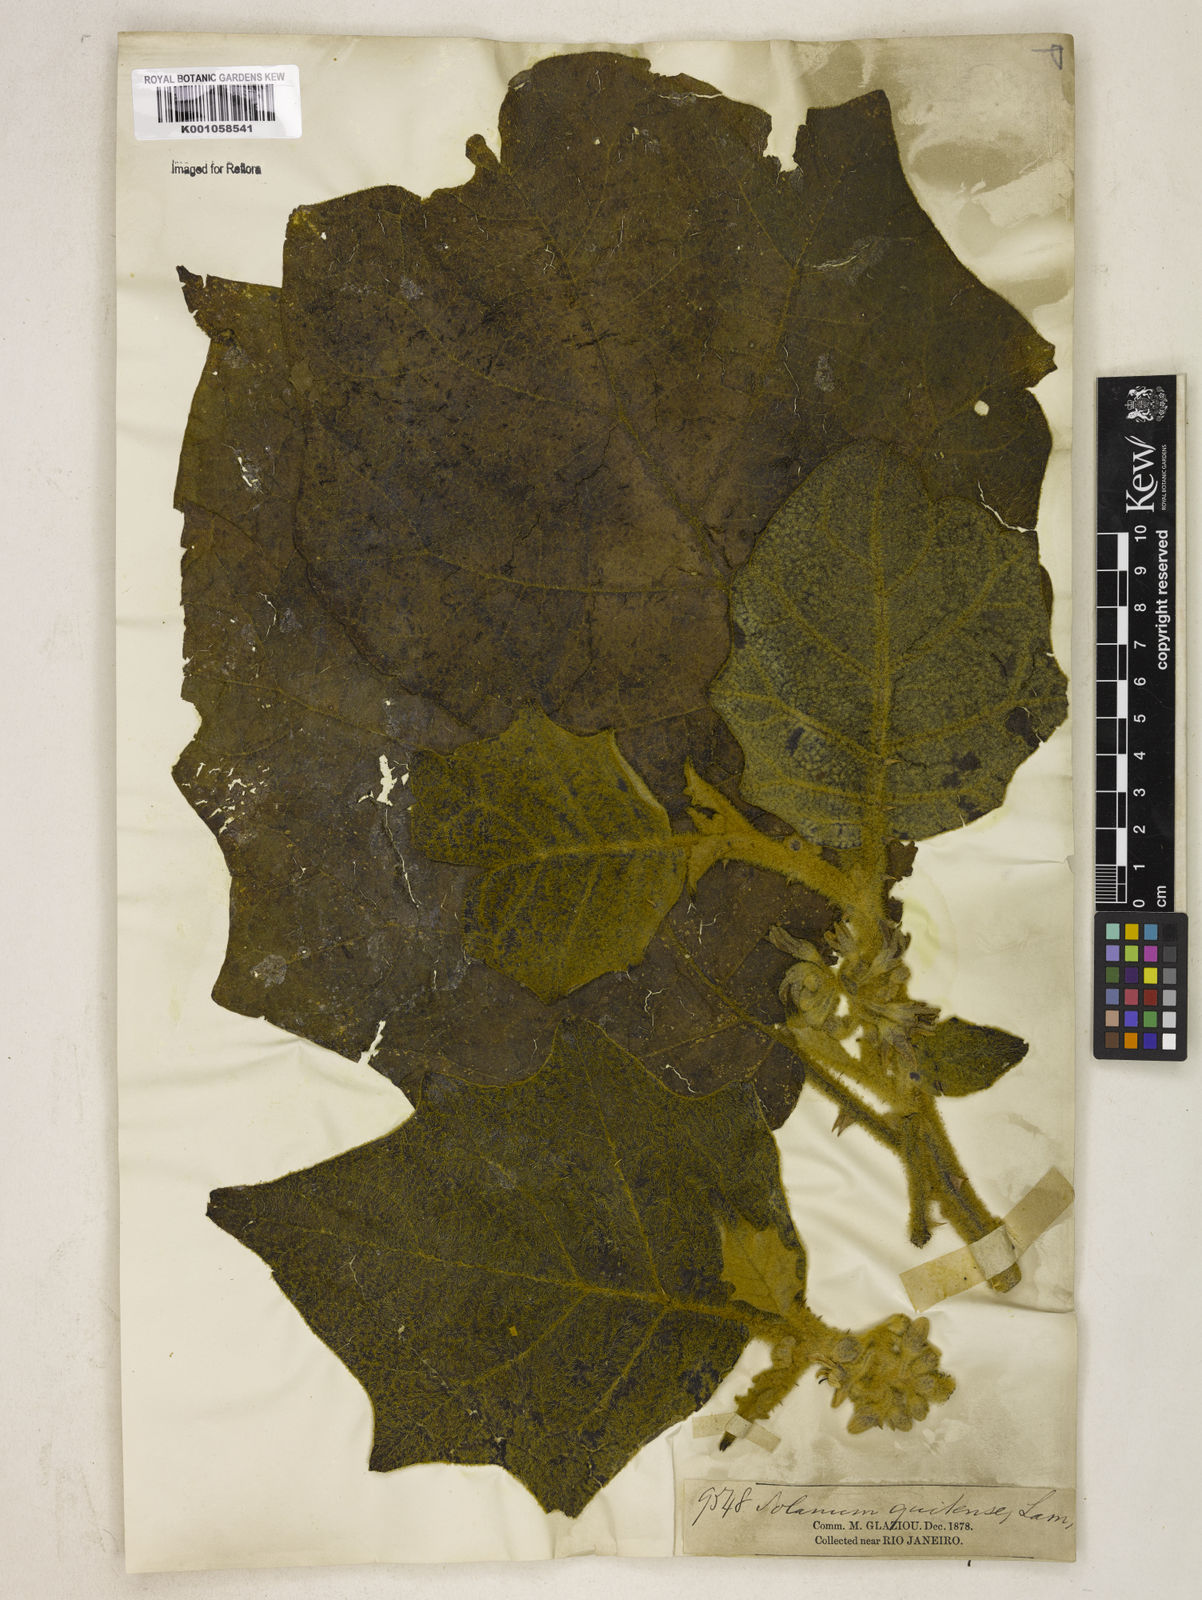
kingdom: Plantae
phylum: Tracheophyta
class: Magnoliopsida
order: Solanales
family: Solanaceae
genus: Solanum
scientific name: Solanum quitoense
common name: Quito-orange
